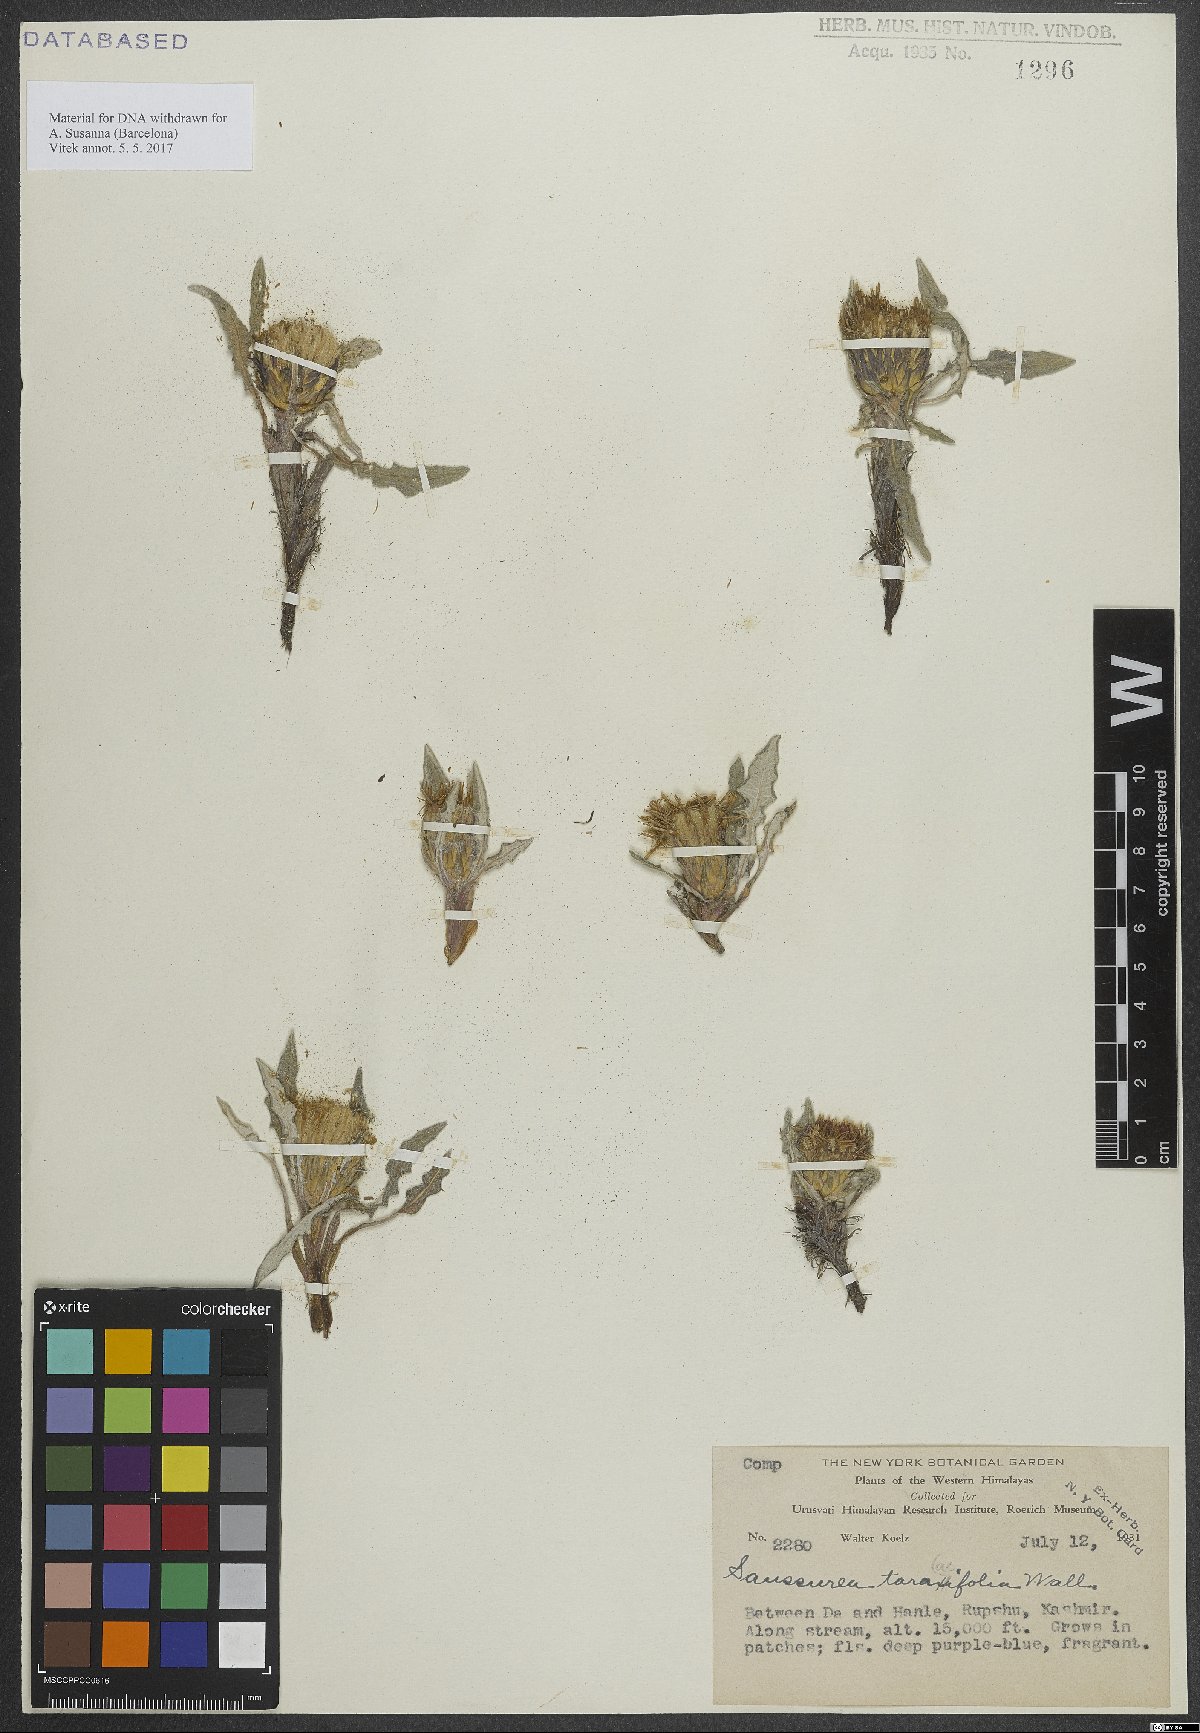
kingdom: Plantae
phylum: Tracheophyta
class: Magnoliopsida
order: Asterales
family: Asteraceae
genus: Saussurea
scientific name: Saussurea taraxacifolia
